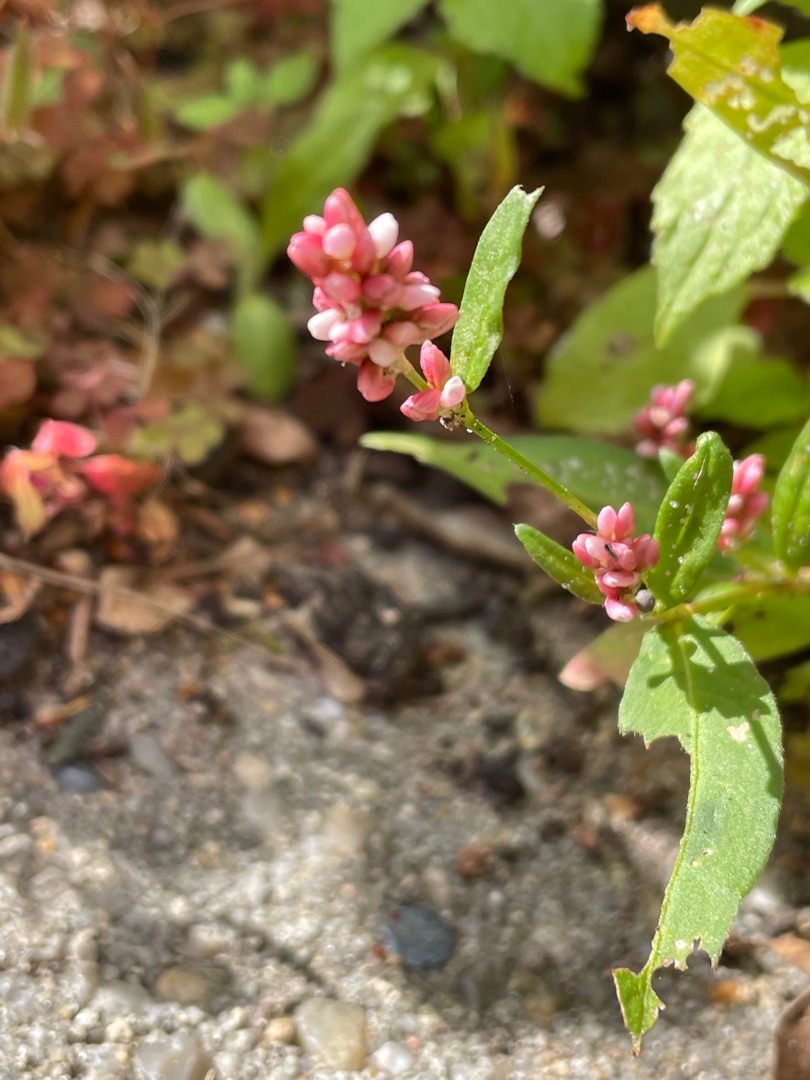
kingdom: Plantae
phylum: Tracheophyta
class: Magnoliopsida
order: Caryophyllales
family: Polygonaceae
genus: Persicaria
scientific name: Persicaria maculosa
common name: Fersken-pileurt
